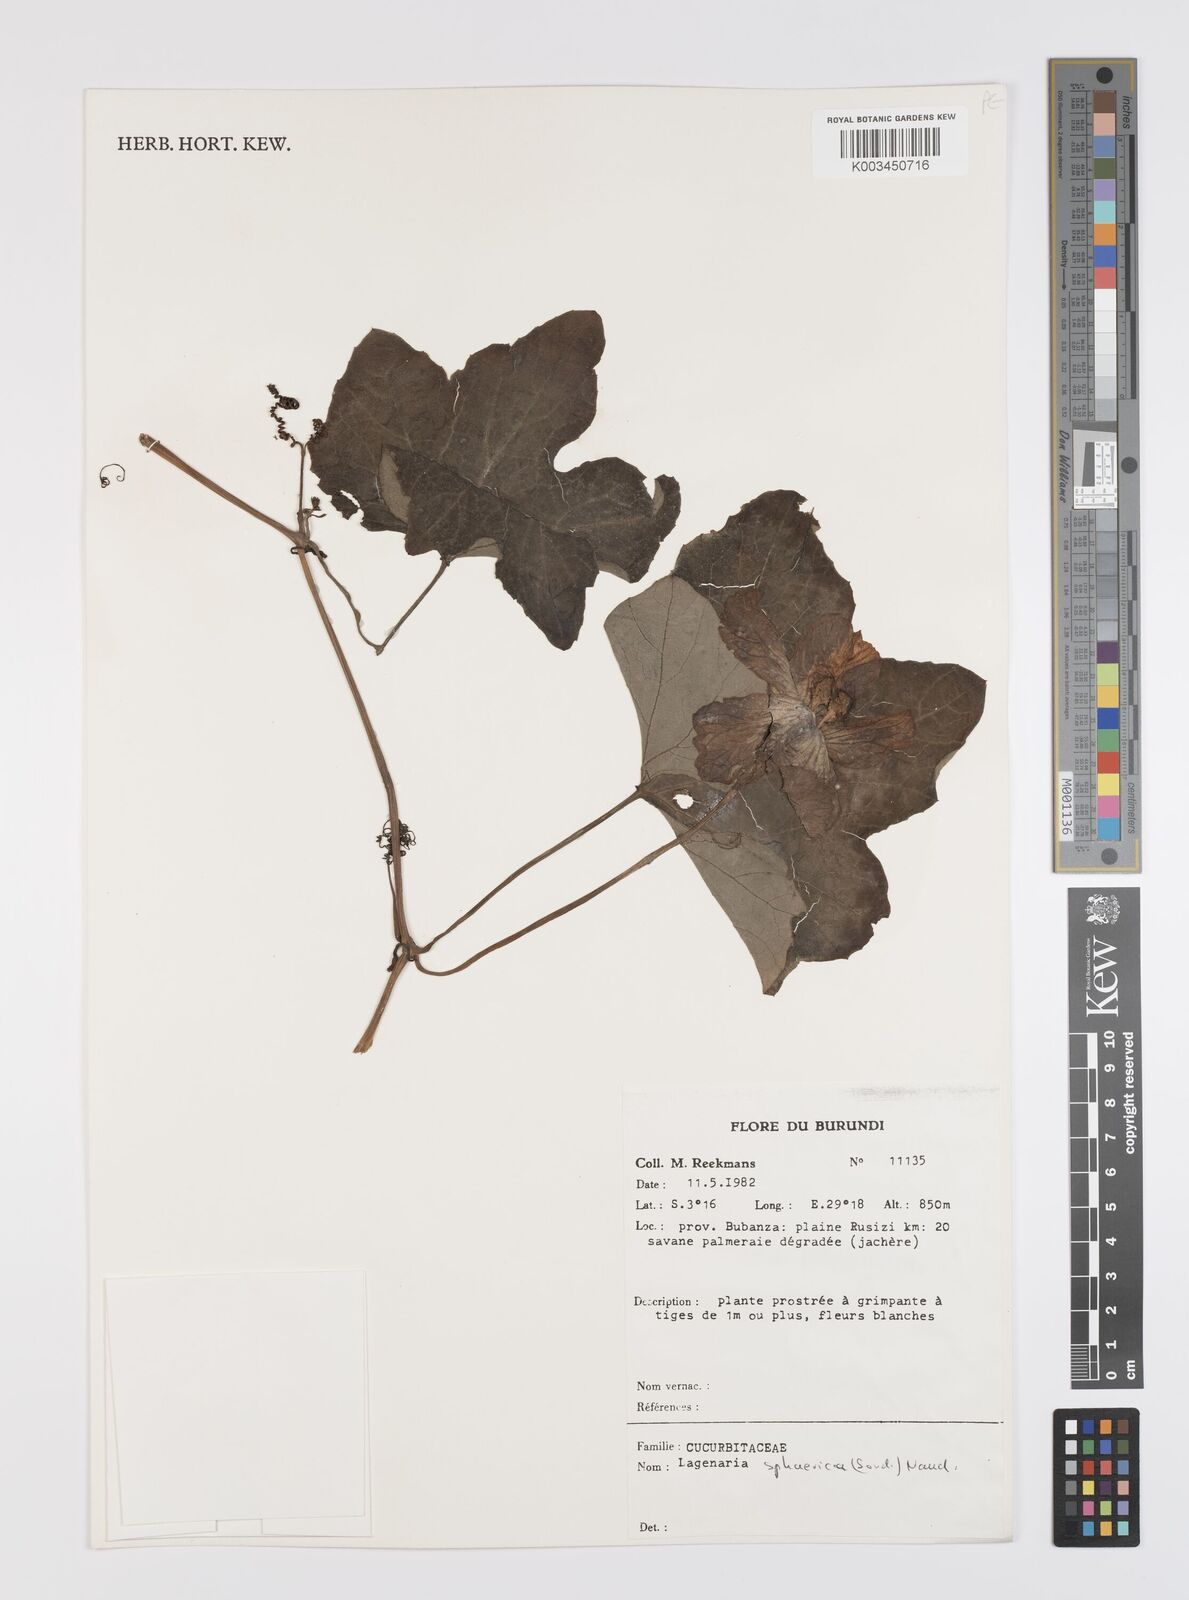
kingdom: Plantae
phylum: Tracheophyta
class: Magnoliopsida
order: Cucurbitales
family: Cucurbitaceae
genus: Lagenaria
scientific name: Lagenaria sphaerica
